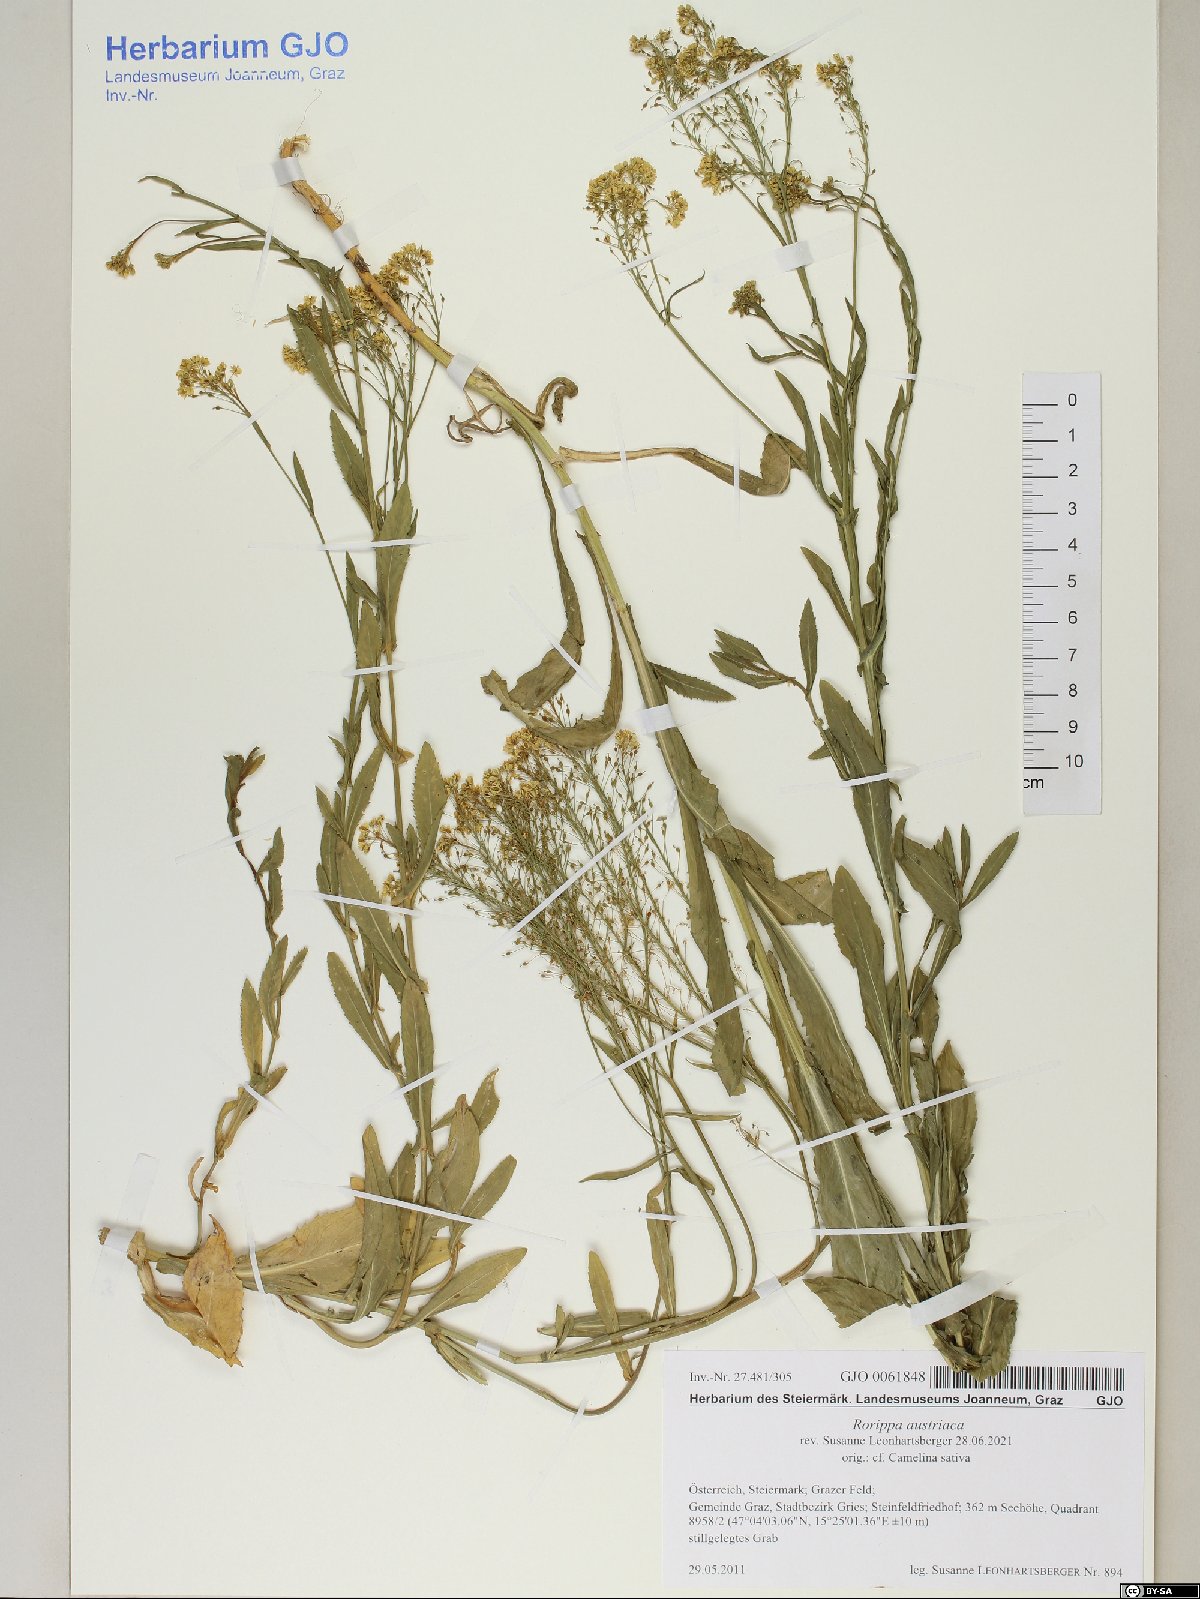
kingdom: Plantae
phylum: Tracheophyta
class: Magnoliopsida
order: Brassicales
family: Brassicaceae
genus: Rorippa
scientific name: Rorippa austriaca
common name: Austrian yellow-cress
